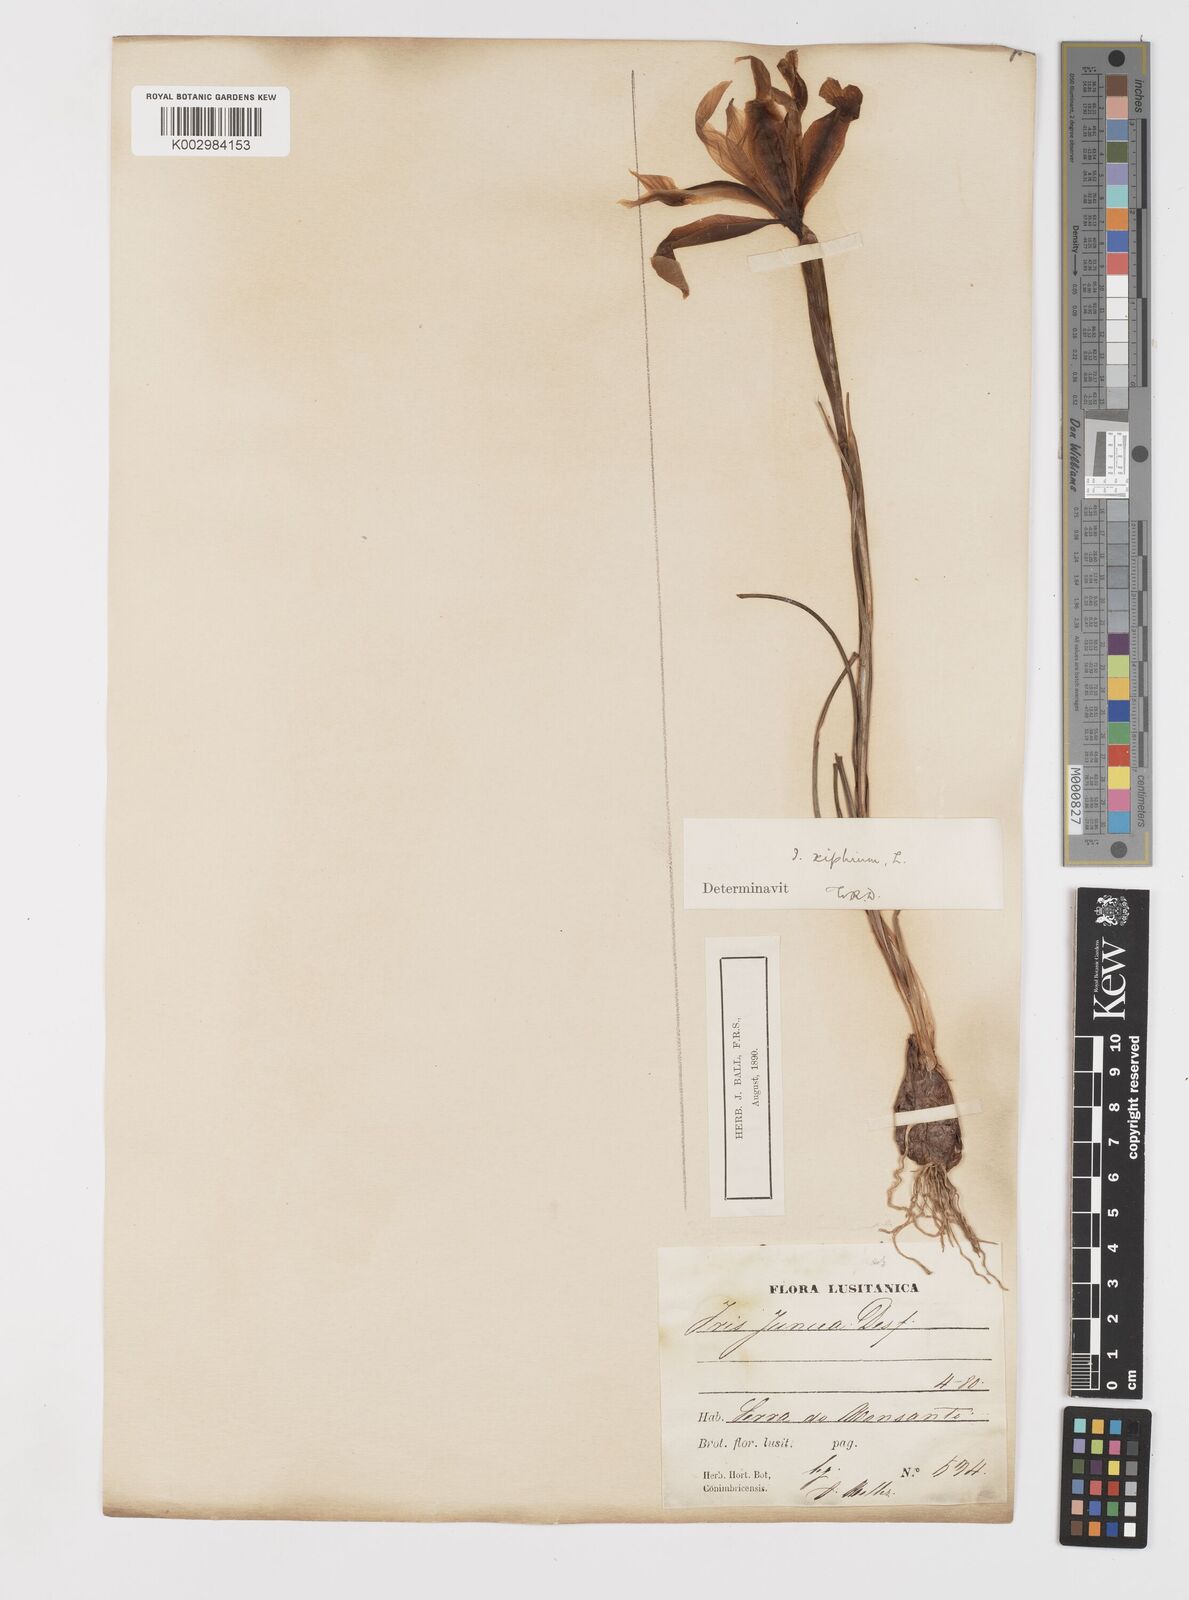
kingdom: Plantae
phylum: Tracheophyta
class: Liliopsida
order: Asparagales
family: Iridaceae
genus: Iris
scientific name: Iris xiphium
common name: Spanish iris
